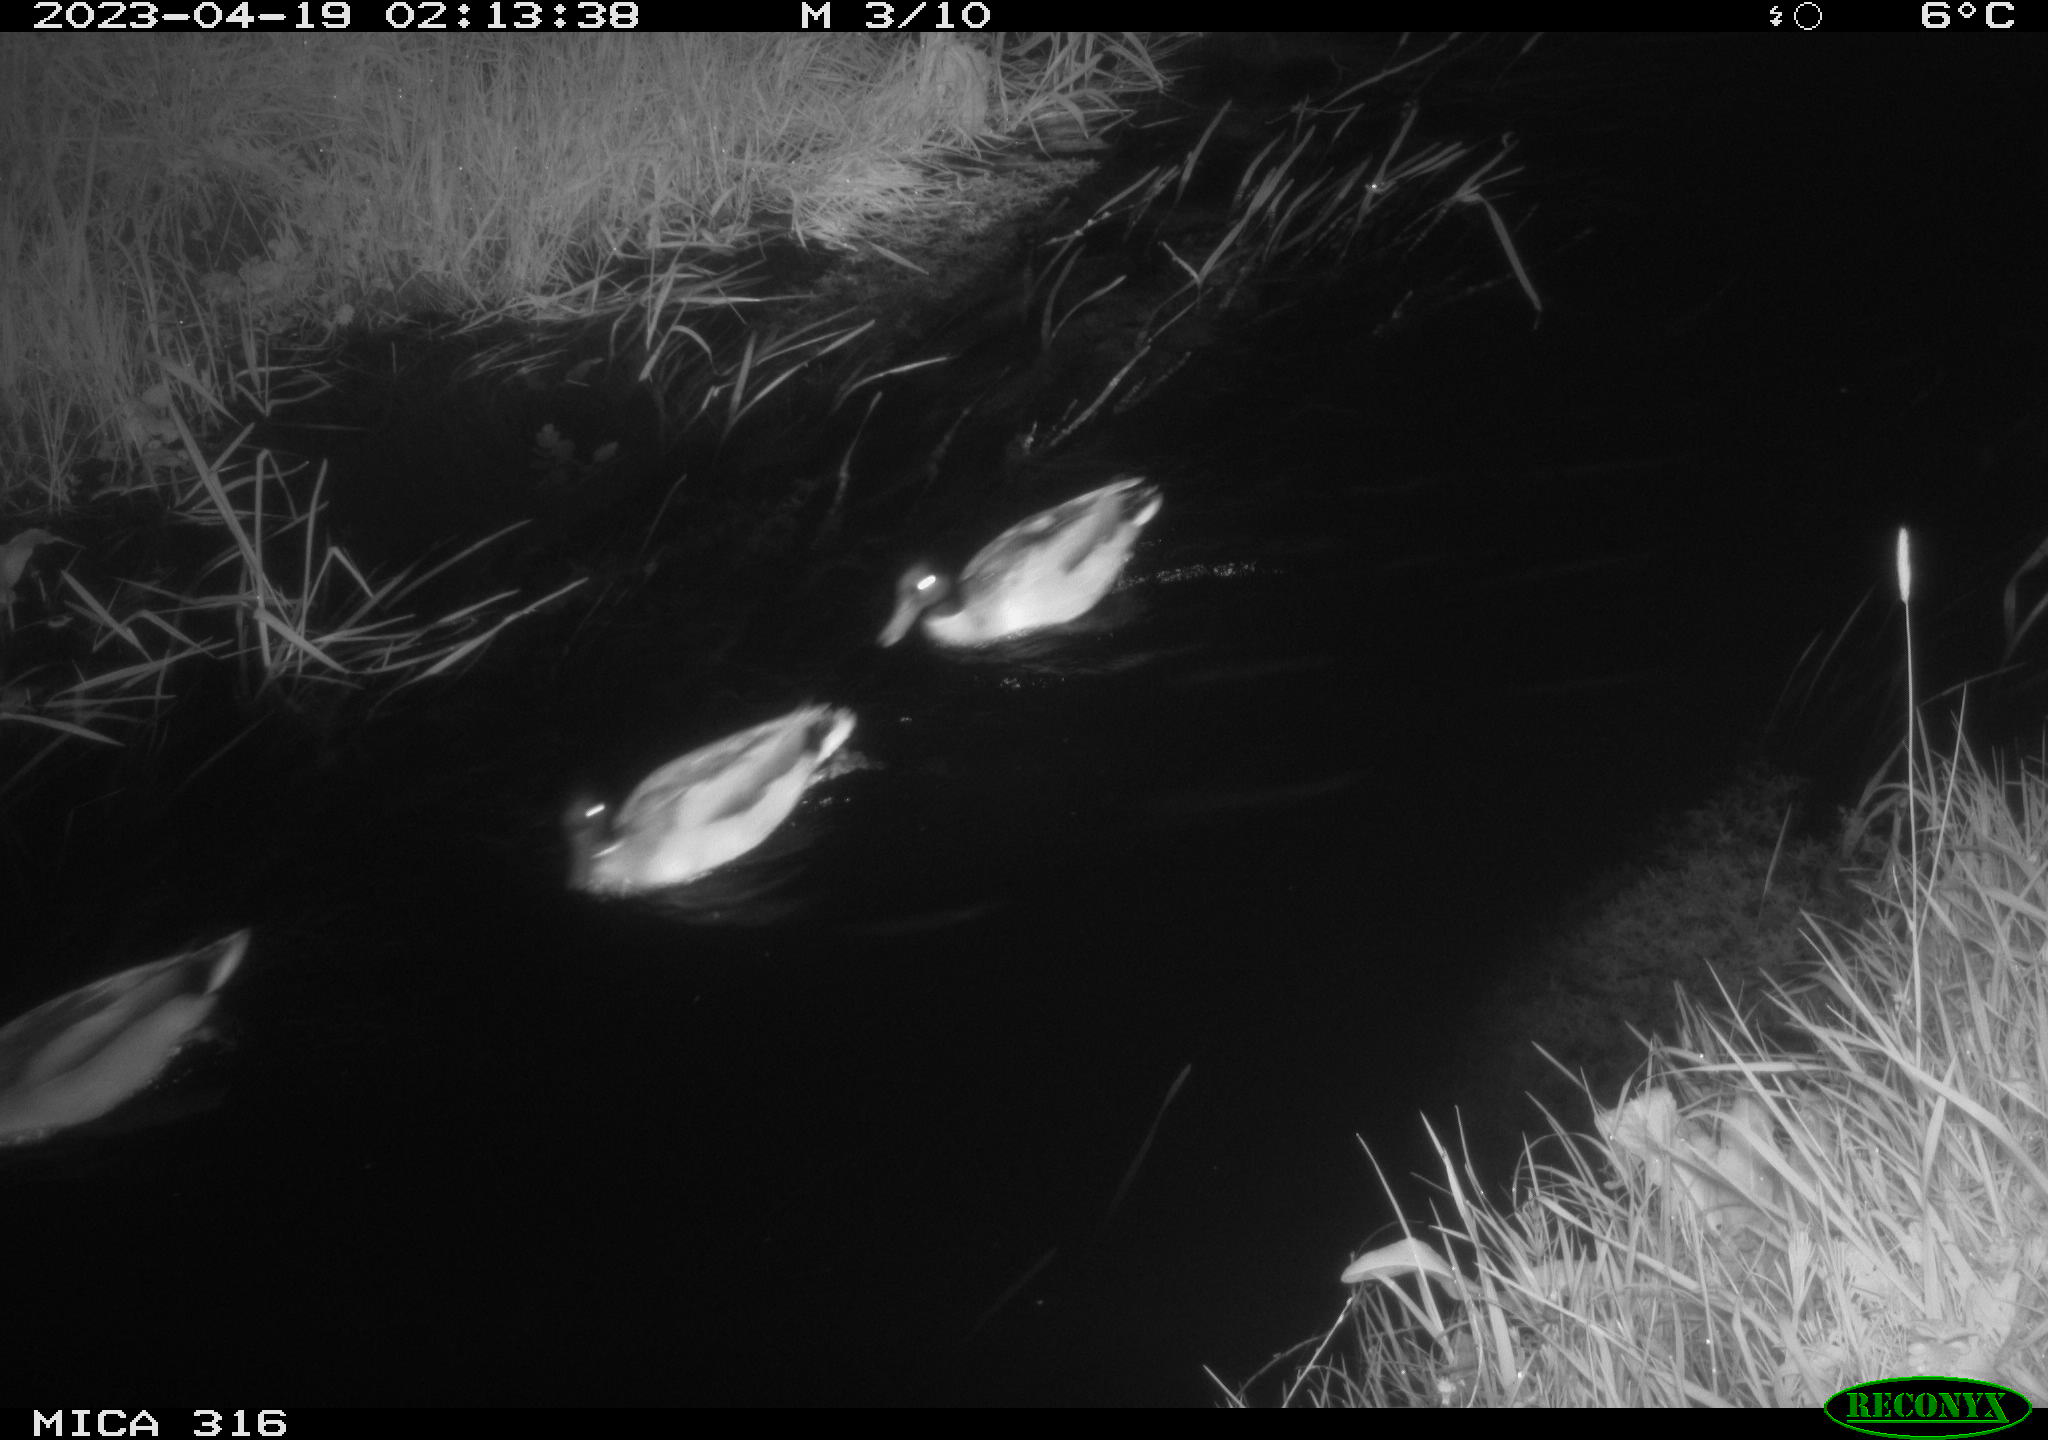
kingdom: Animalia
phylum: Chordata
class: Aves
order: Anseriformes
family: Anatidae
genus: Anas
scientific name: Anas
